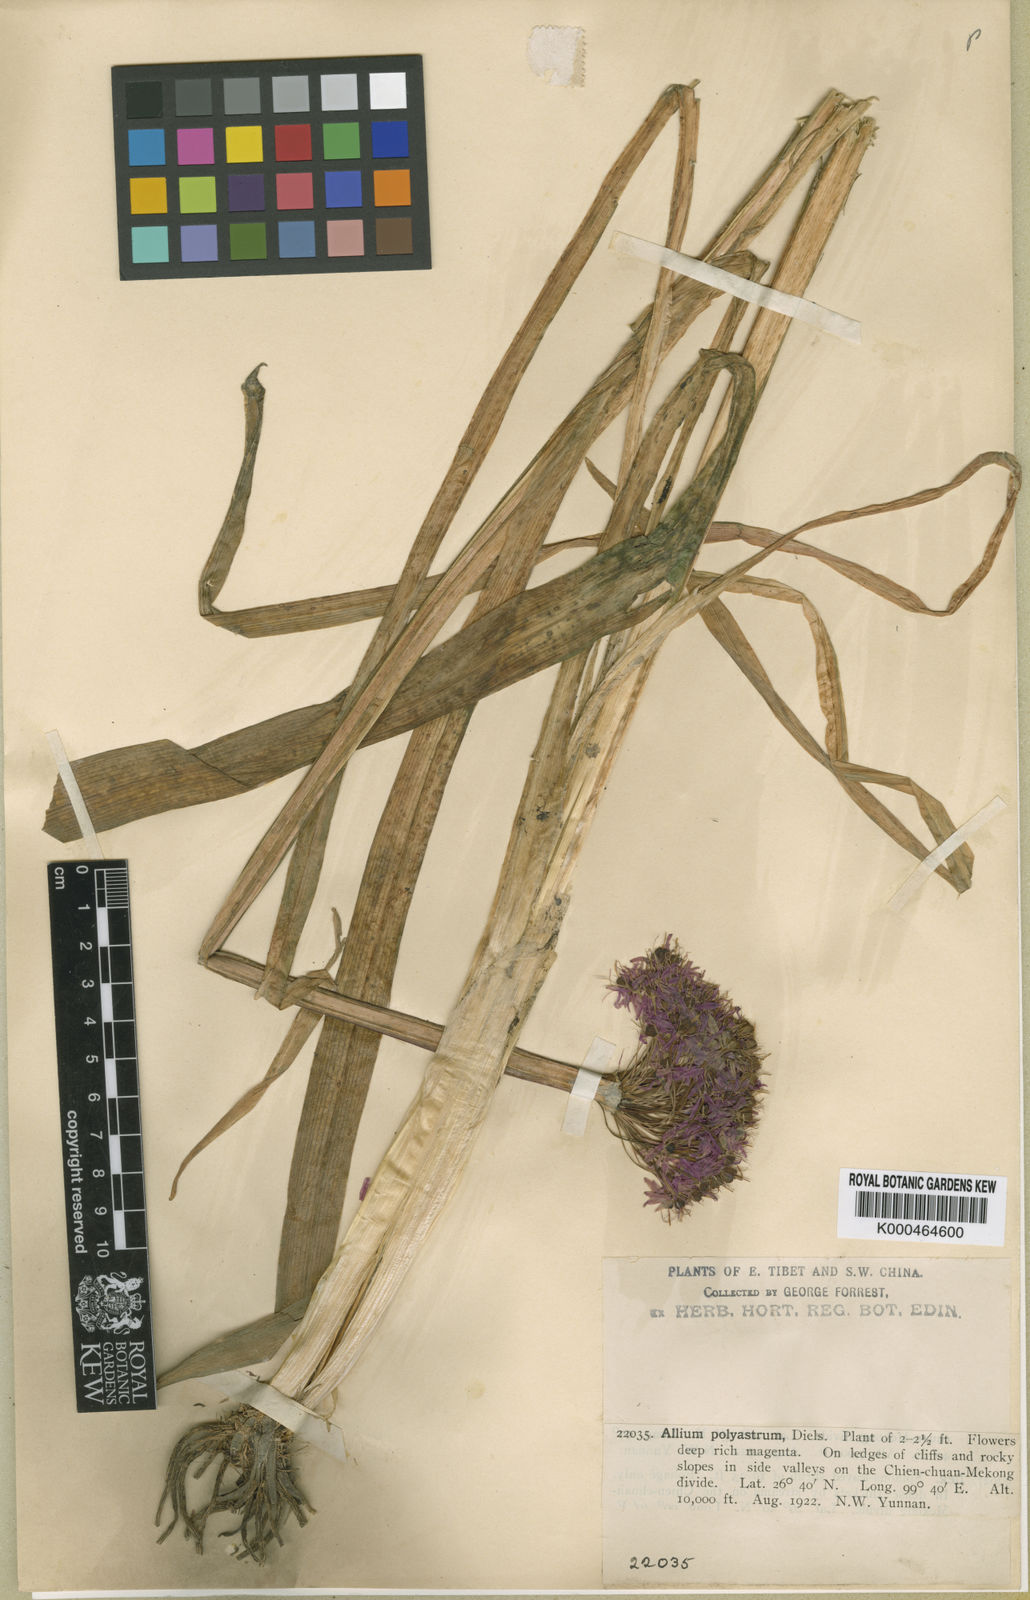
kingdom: Plantae
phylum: Tracheophyta
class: Liliopsida
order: Asparagales
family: Amaryllidaceae
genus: Allium
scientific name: Allium wallichii
